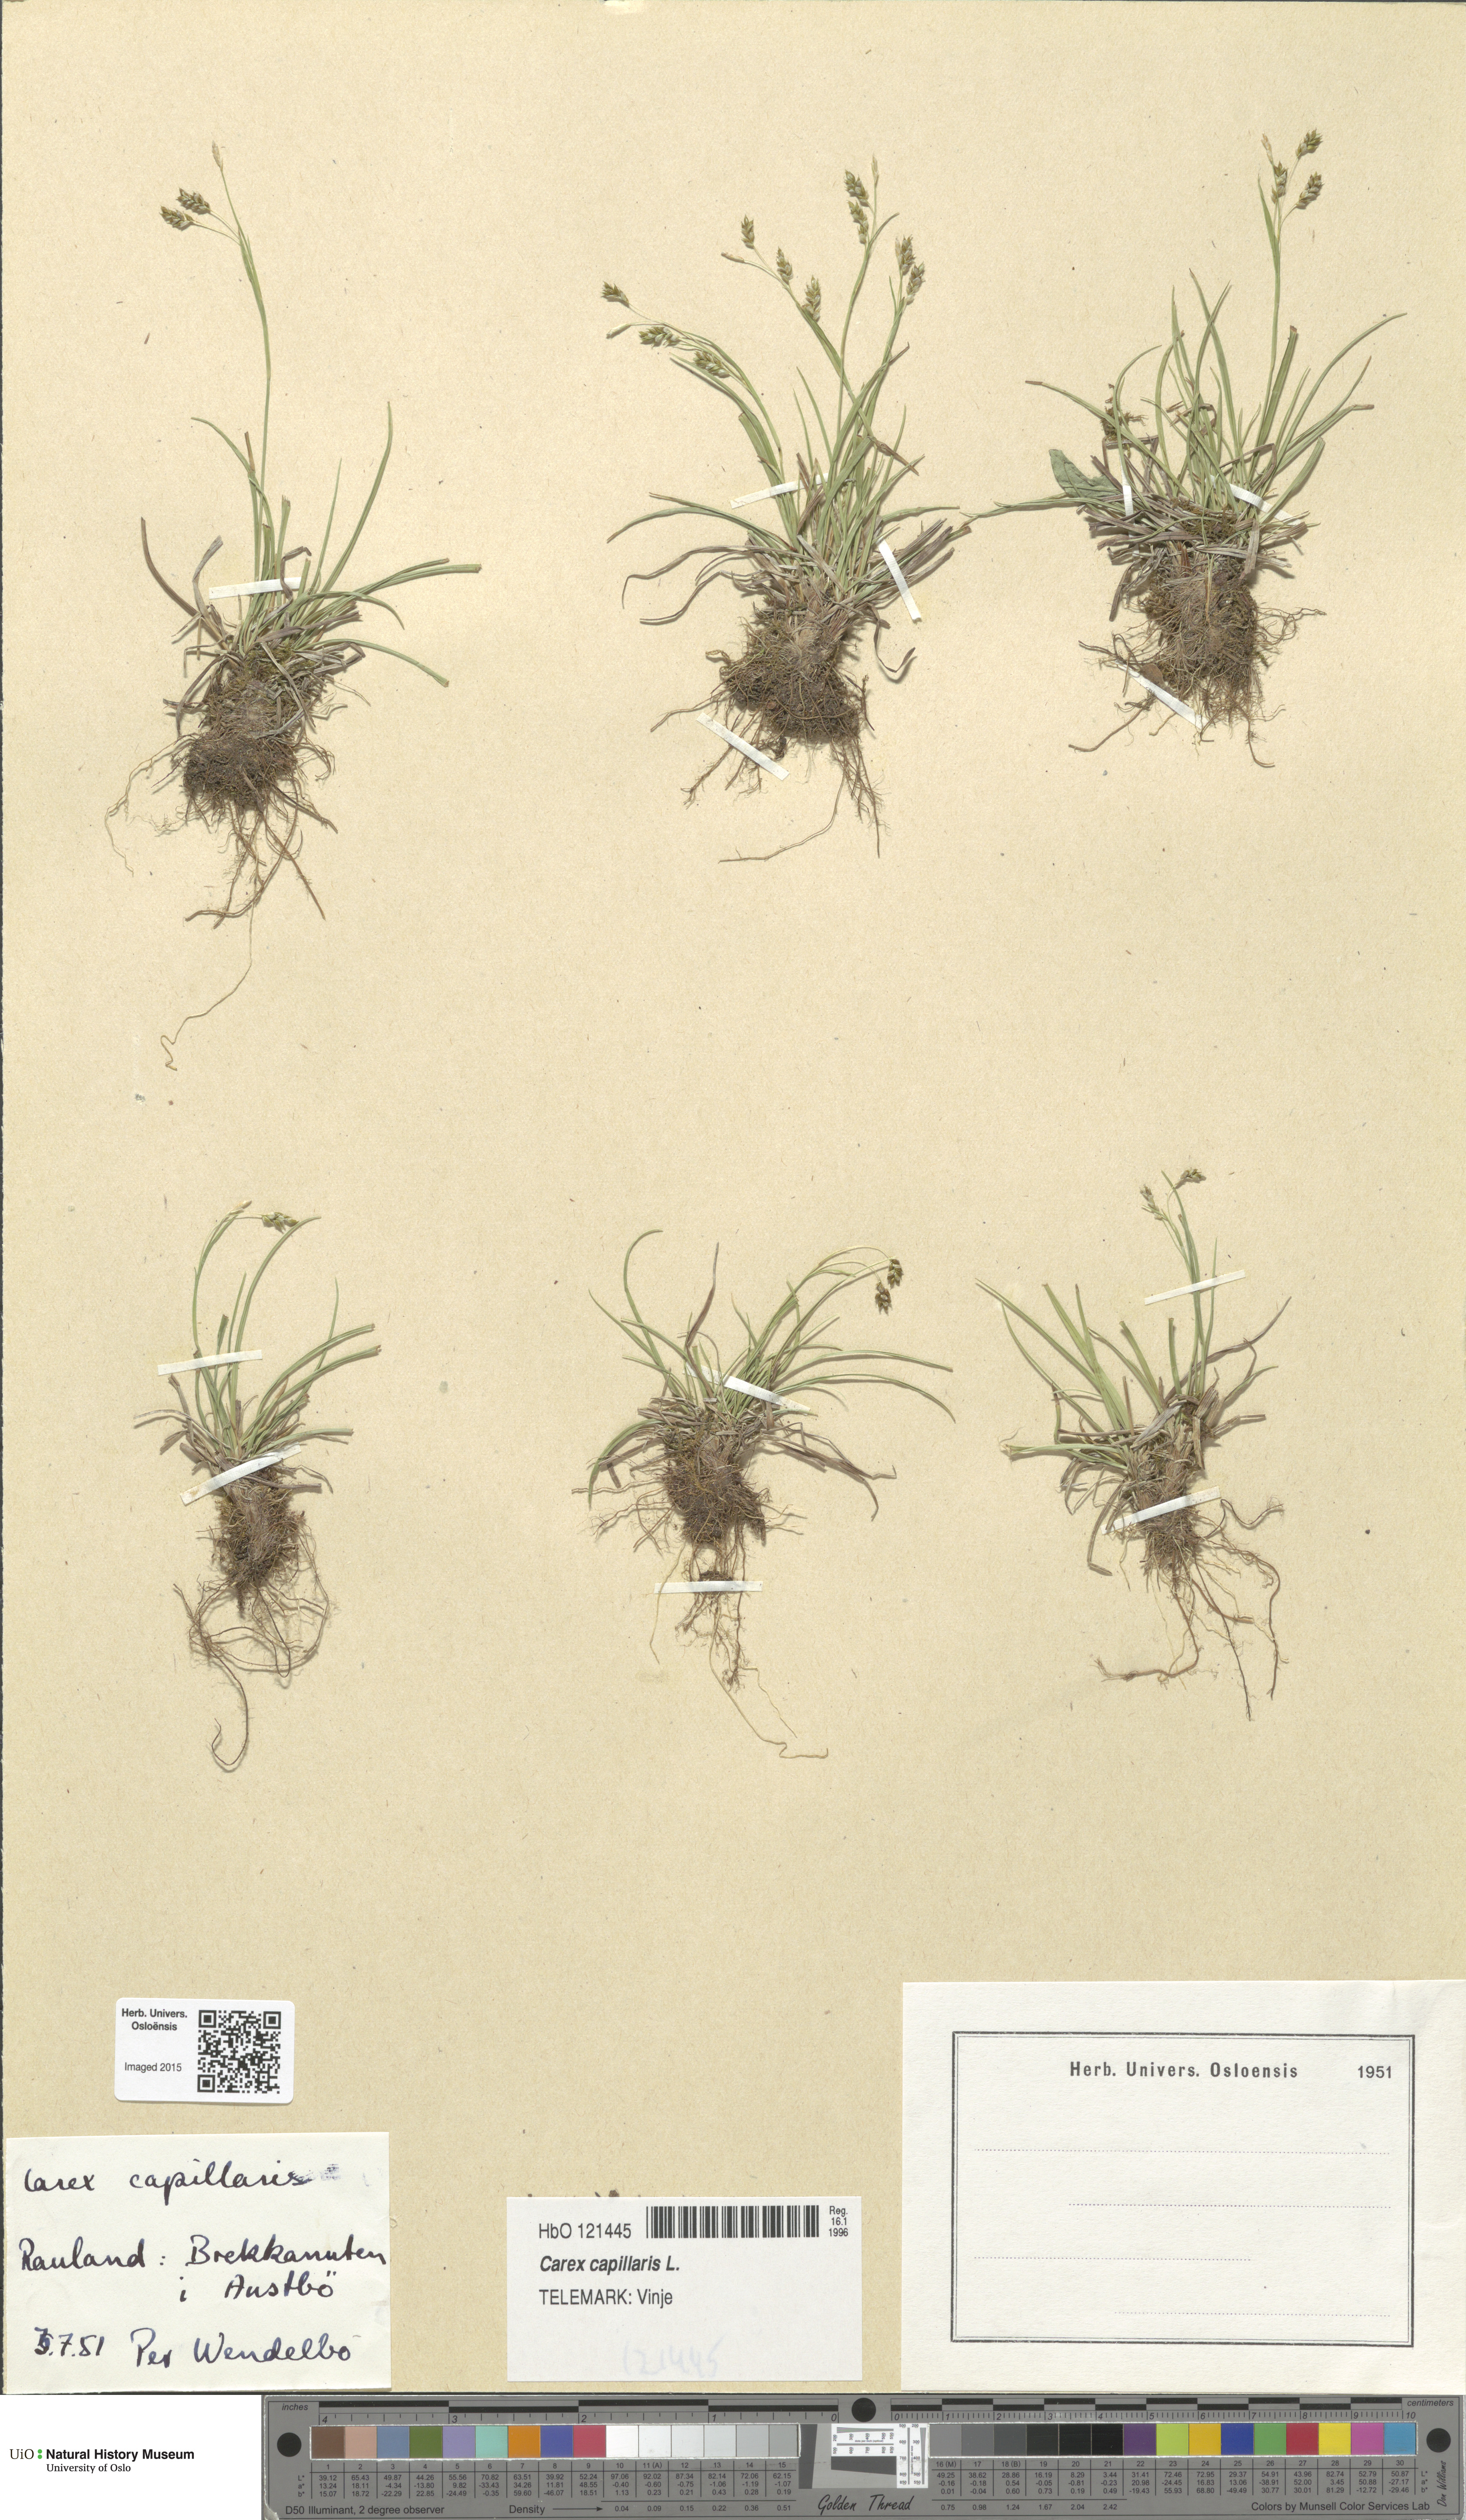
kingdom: Plantae
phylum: Tracheophyta
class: Liliopsida
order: Poales
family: Cyperaceae
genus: Carex
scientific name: Carex capillaris
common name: Hair sedge
